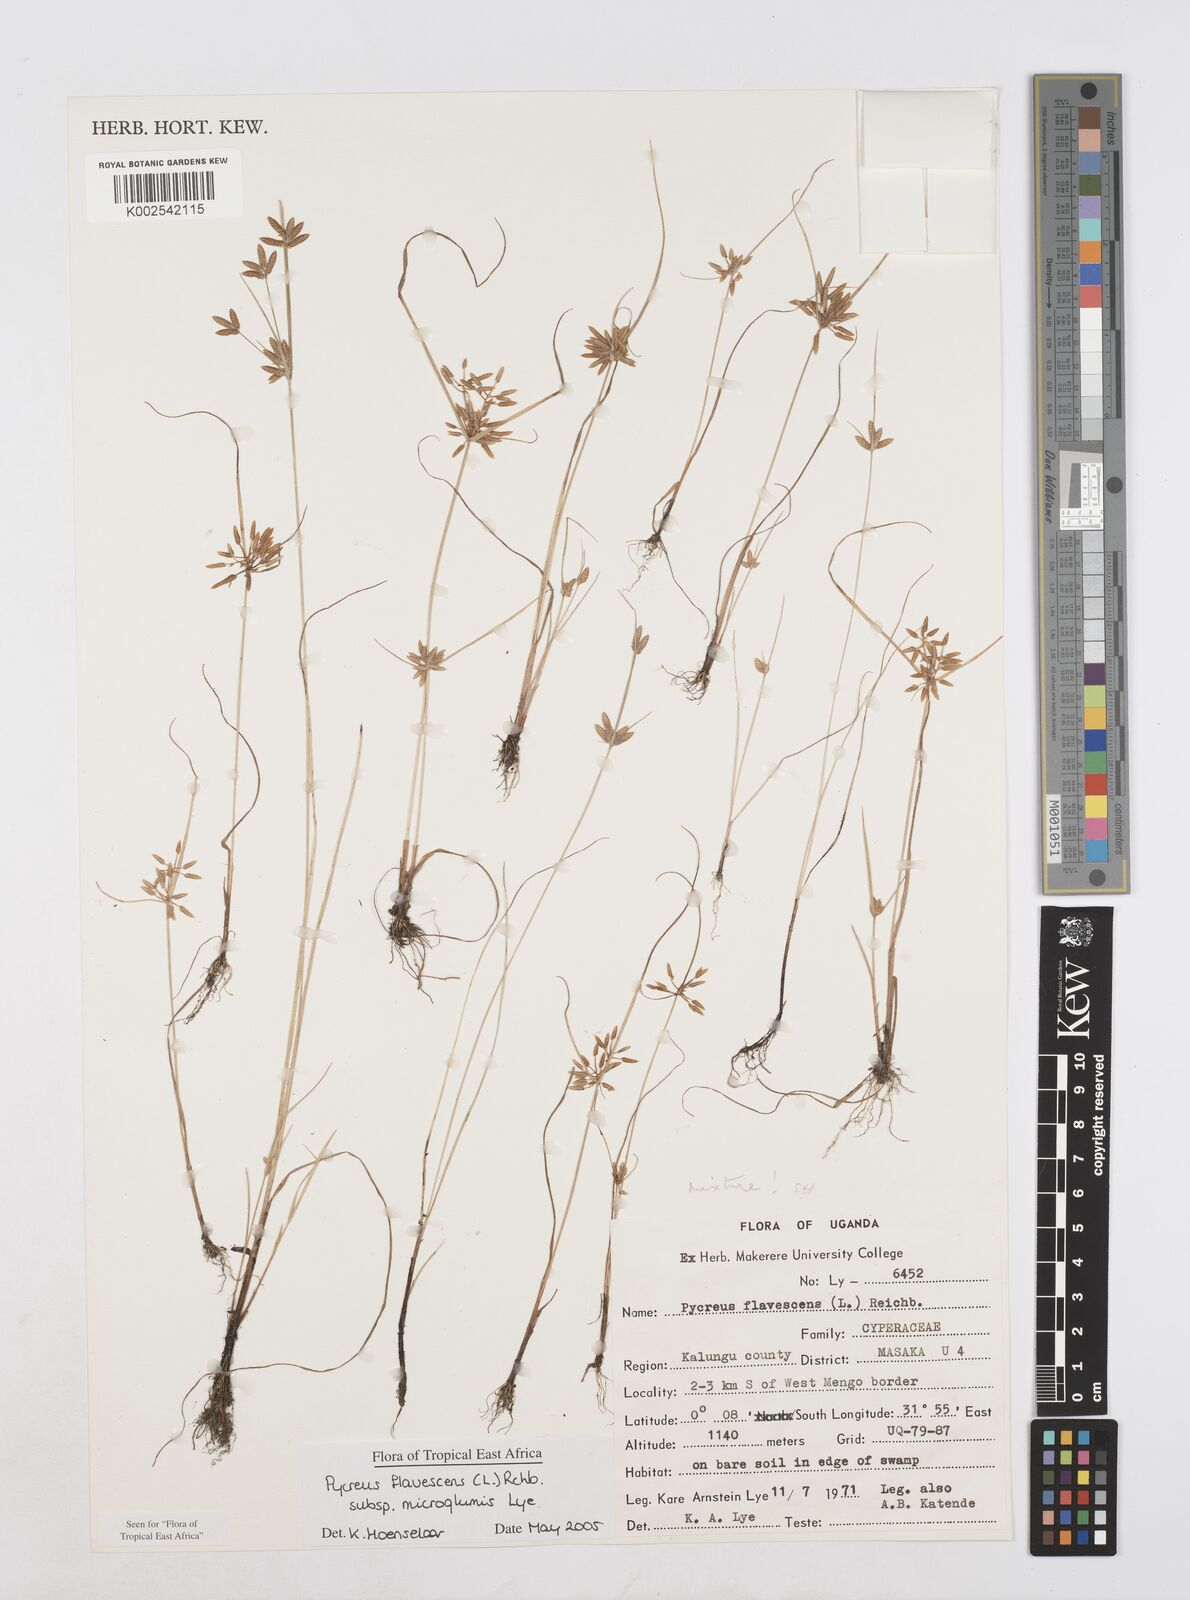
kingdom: Plantae
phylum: Tracheophyta
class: Liliopsida
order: Poales
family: Cyperaceae
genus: Cyperus
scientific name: Cyperus flavescens
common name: Yellow galingale
